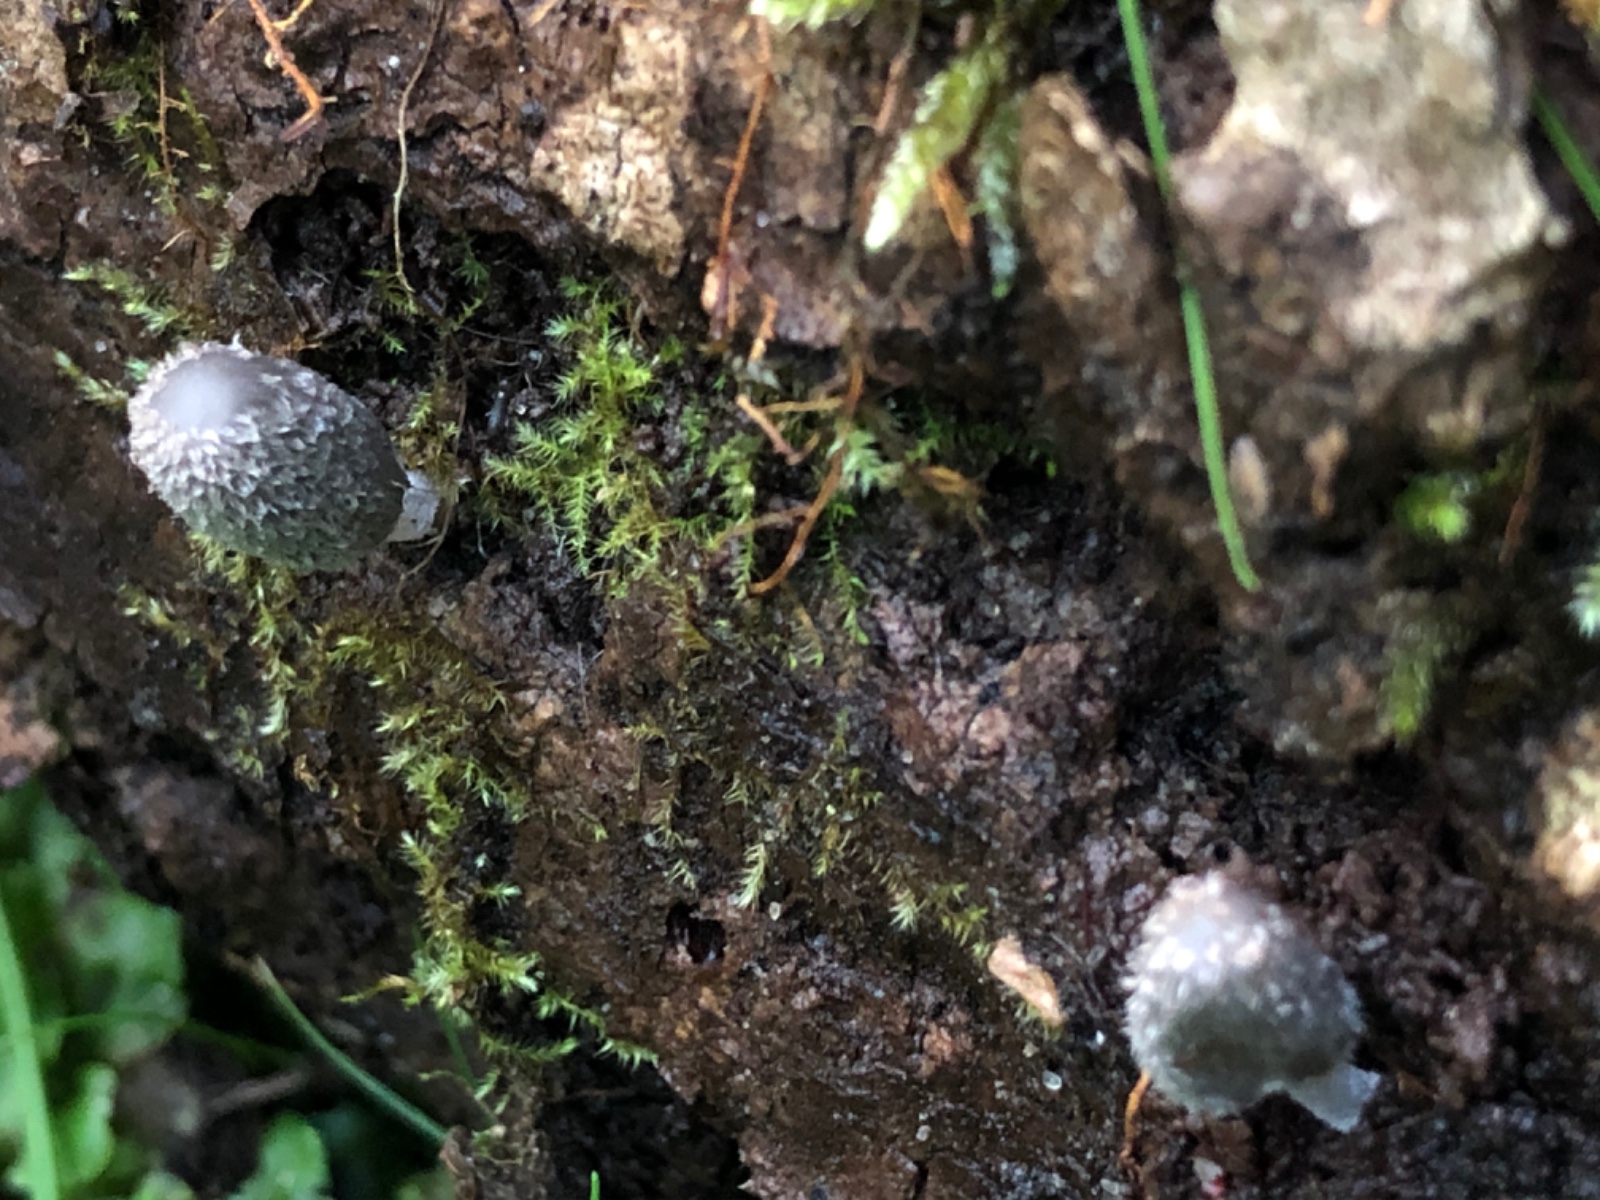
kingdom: Fungi
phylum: Basidiomycota
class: Agaricomycetes
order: Agaricales
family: Psathyrellaceae
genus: Coprinopsis
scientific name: Coprinopsis lagopus
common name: dunstokket blækhat
